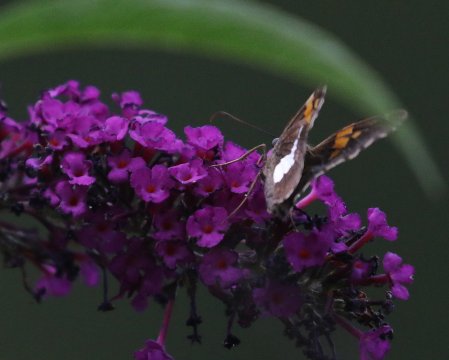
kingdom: Animalia
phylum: Arthropoda
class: Insecta
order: Lepidoptera
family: Hesperiidae
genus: Epargyreus
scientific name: Epargyreus clarus
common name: Silver-spotted Skipper
